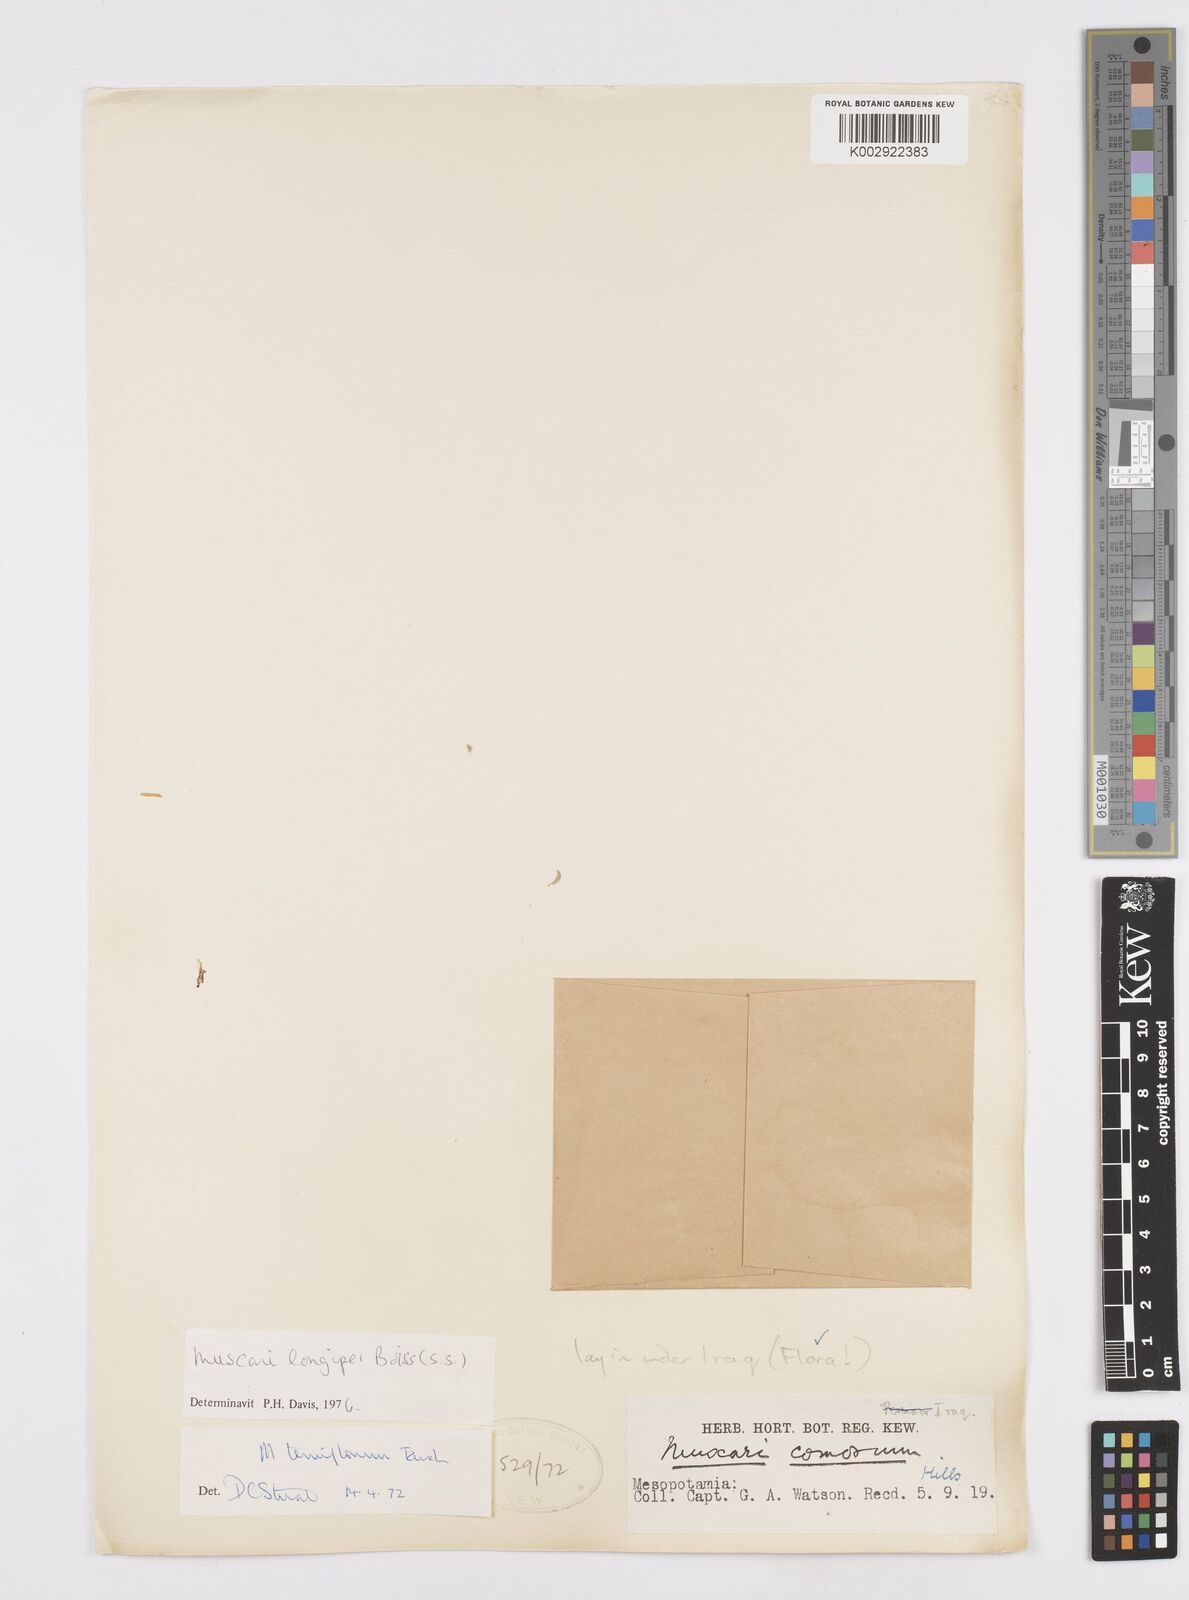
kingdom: Plantae
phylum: Tracheophyta
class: Liliopsida
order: Asparagales
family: Asparagaceae
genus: Muscari
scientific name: Muscari longipes
